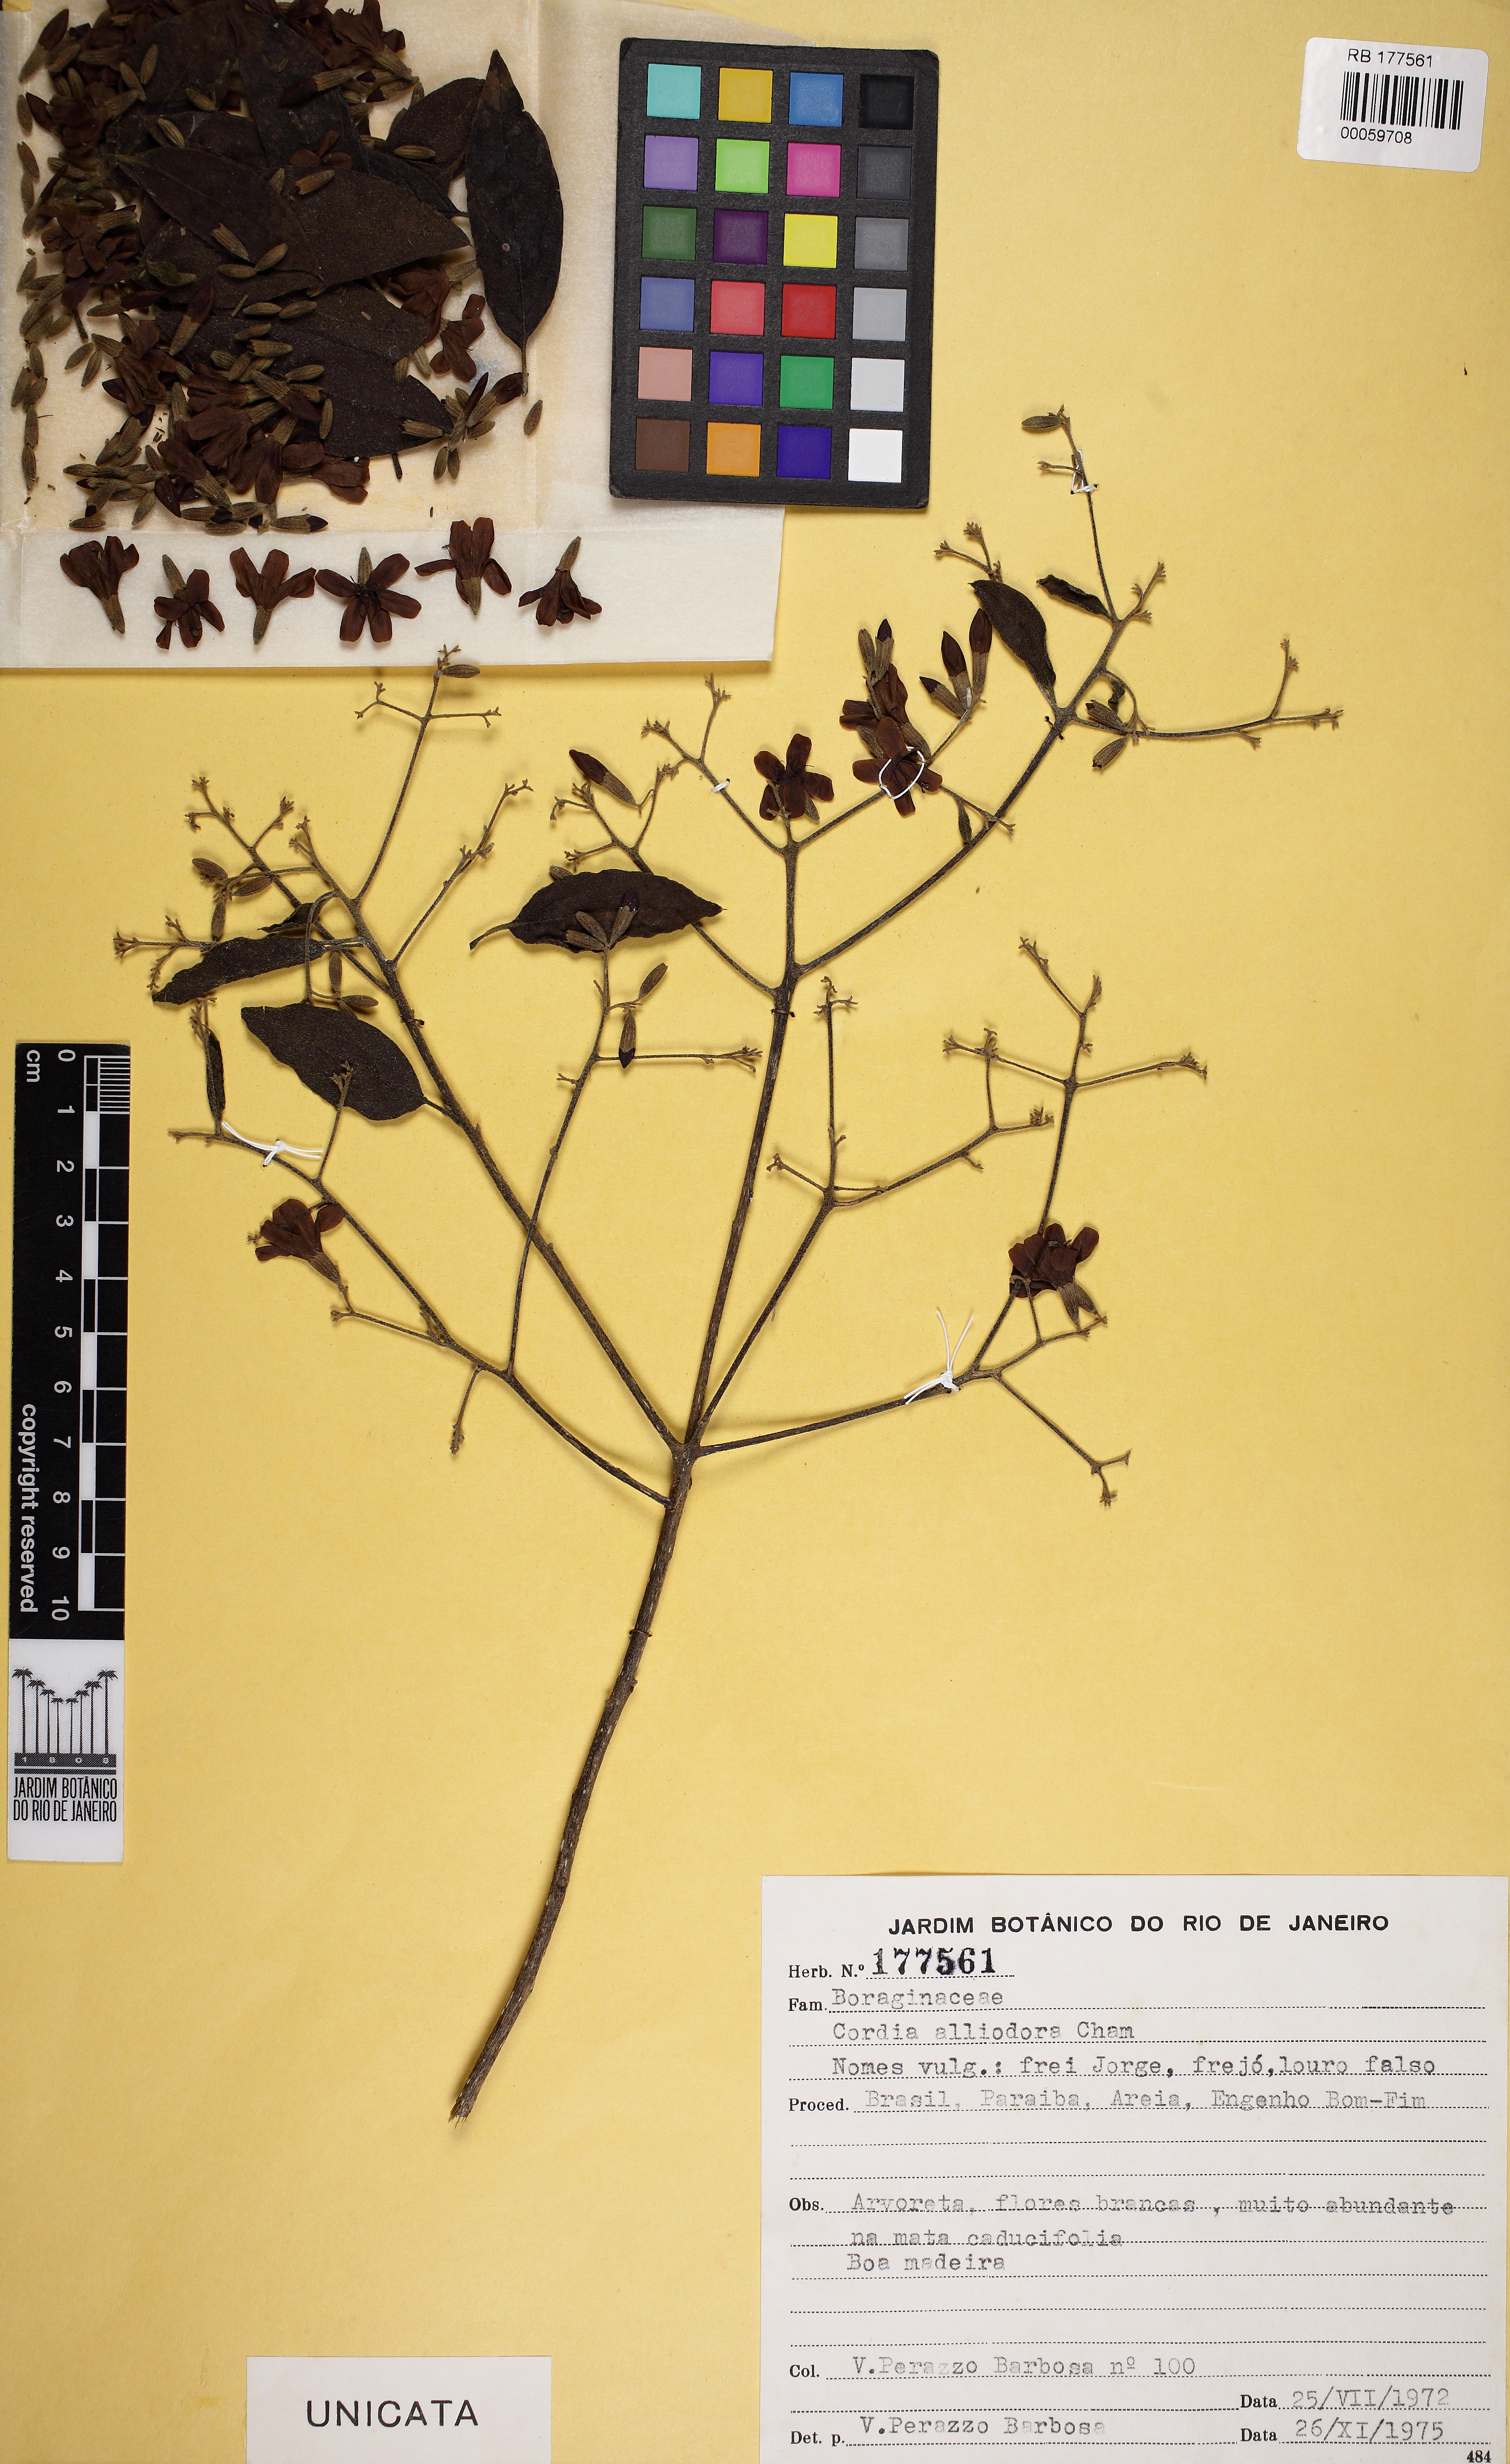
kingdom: Plantae
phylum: Tracheophyta
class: Magnoliopsida
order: Boraginales
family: Cordiaceae
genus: Cordia
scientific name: Cordia alliodora
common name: Spanish elm
